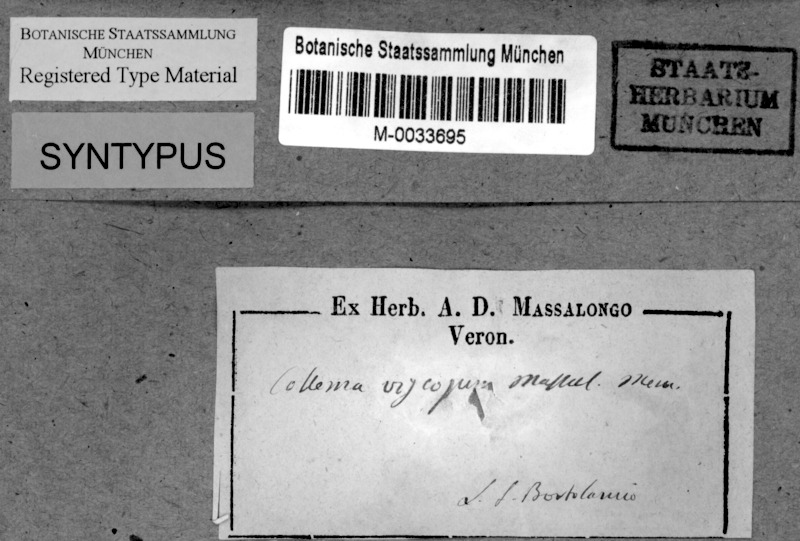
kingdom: Fungi
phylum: Ascomycota
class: Lecanoromycetes
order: Peltigerales
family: Collemataceae
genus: Enchylium
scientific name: Enchylium limosum
